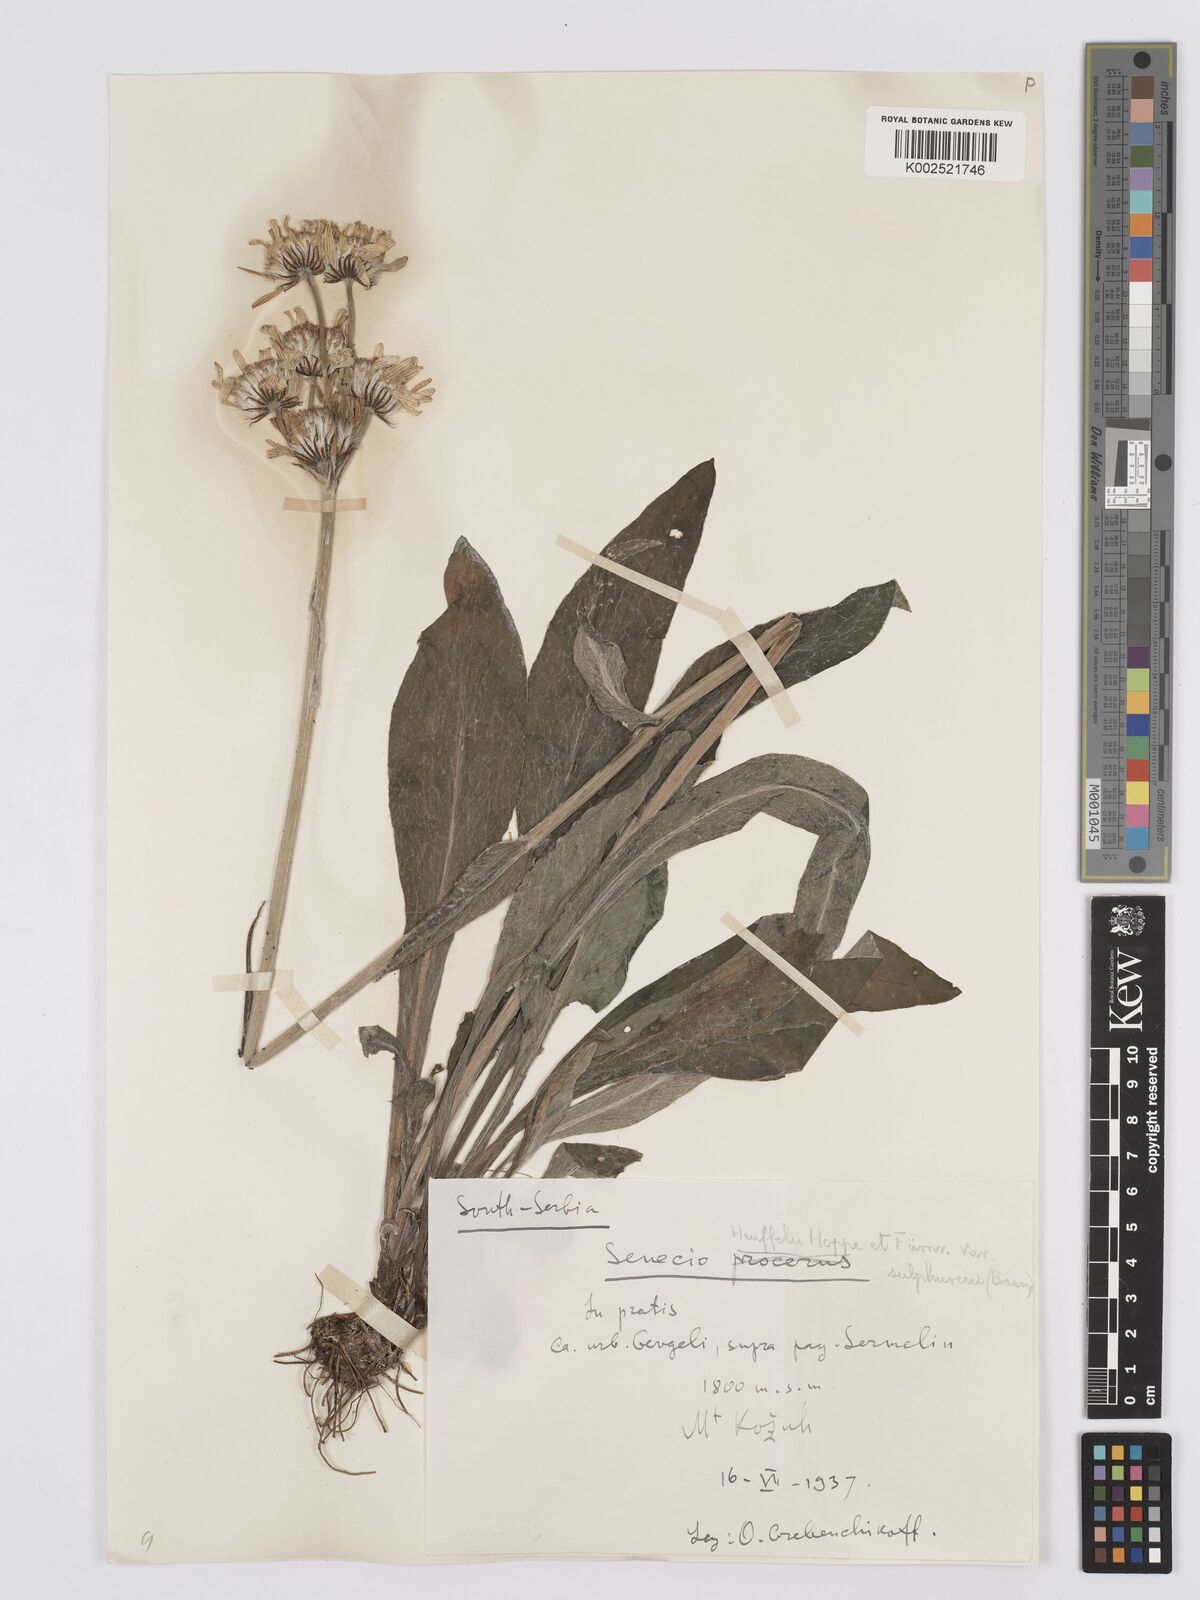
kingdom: Plantae
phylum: Tracheophyta
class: Magnoliopsida
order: Asterales
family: Asteraceae
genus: Tephroseris
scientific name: Tephroseris papposa
